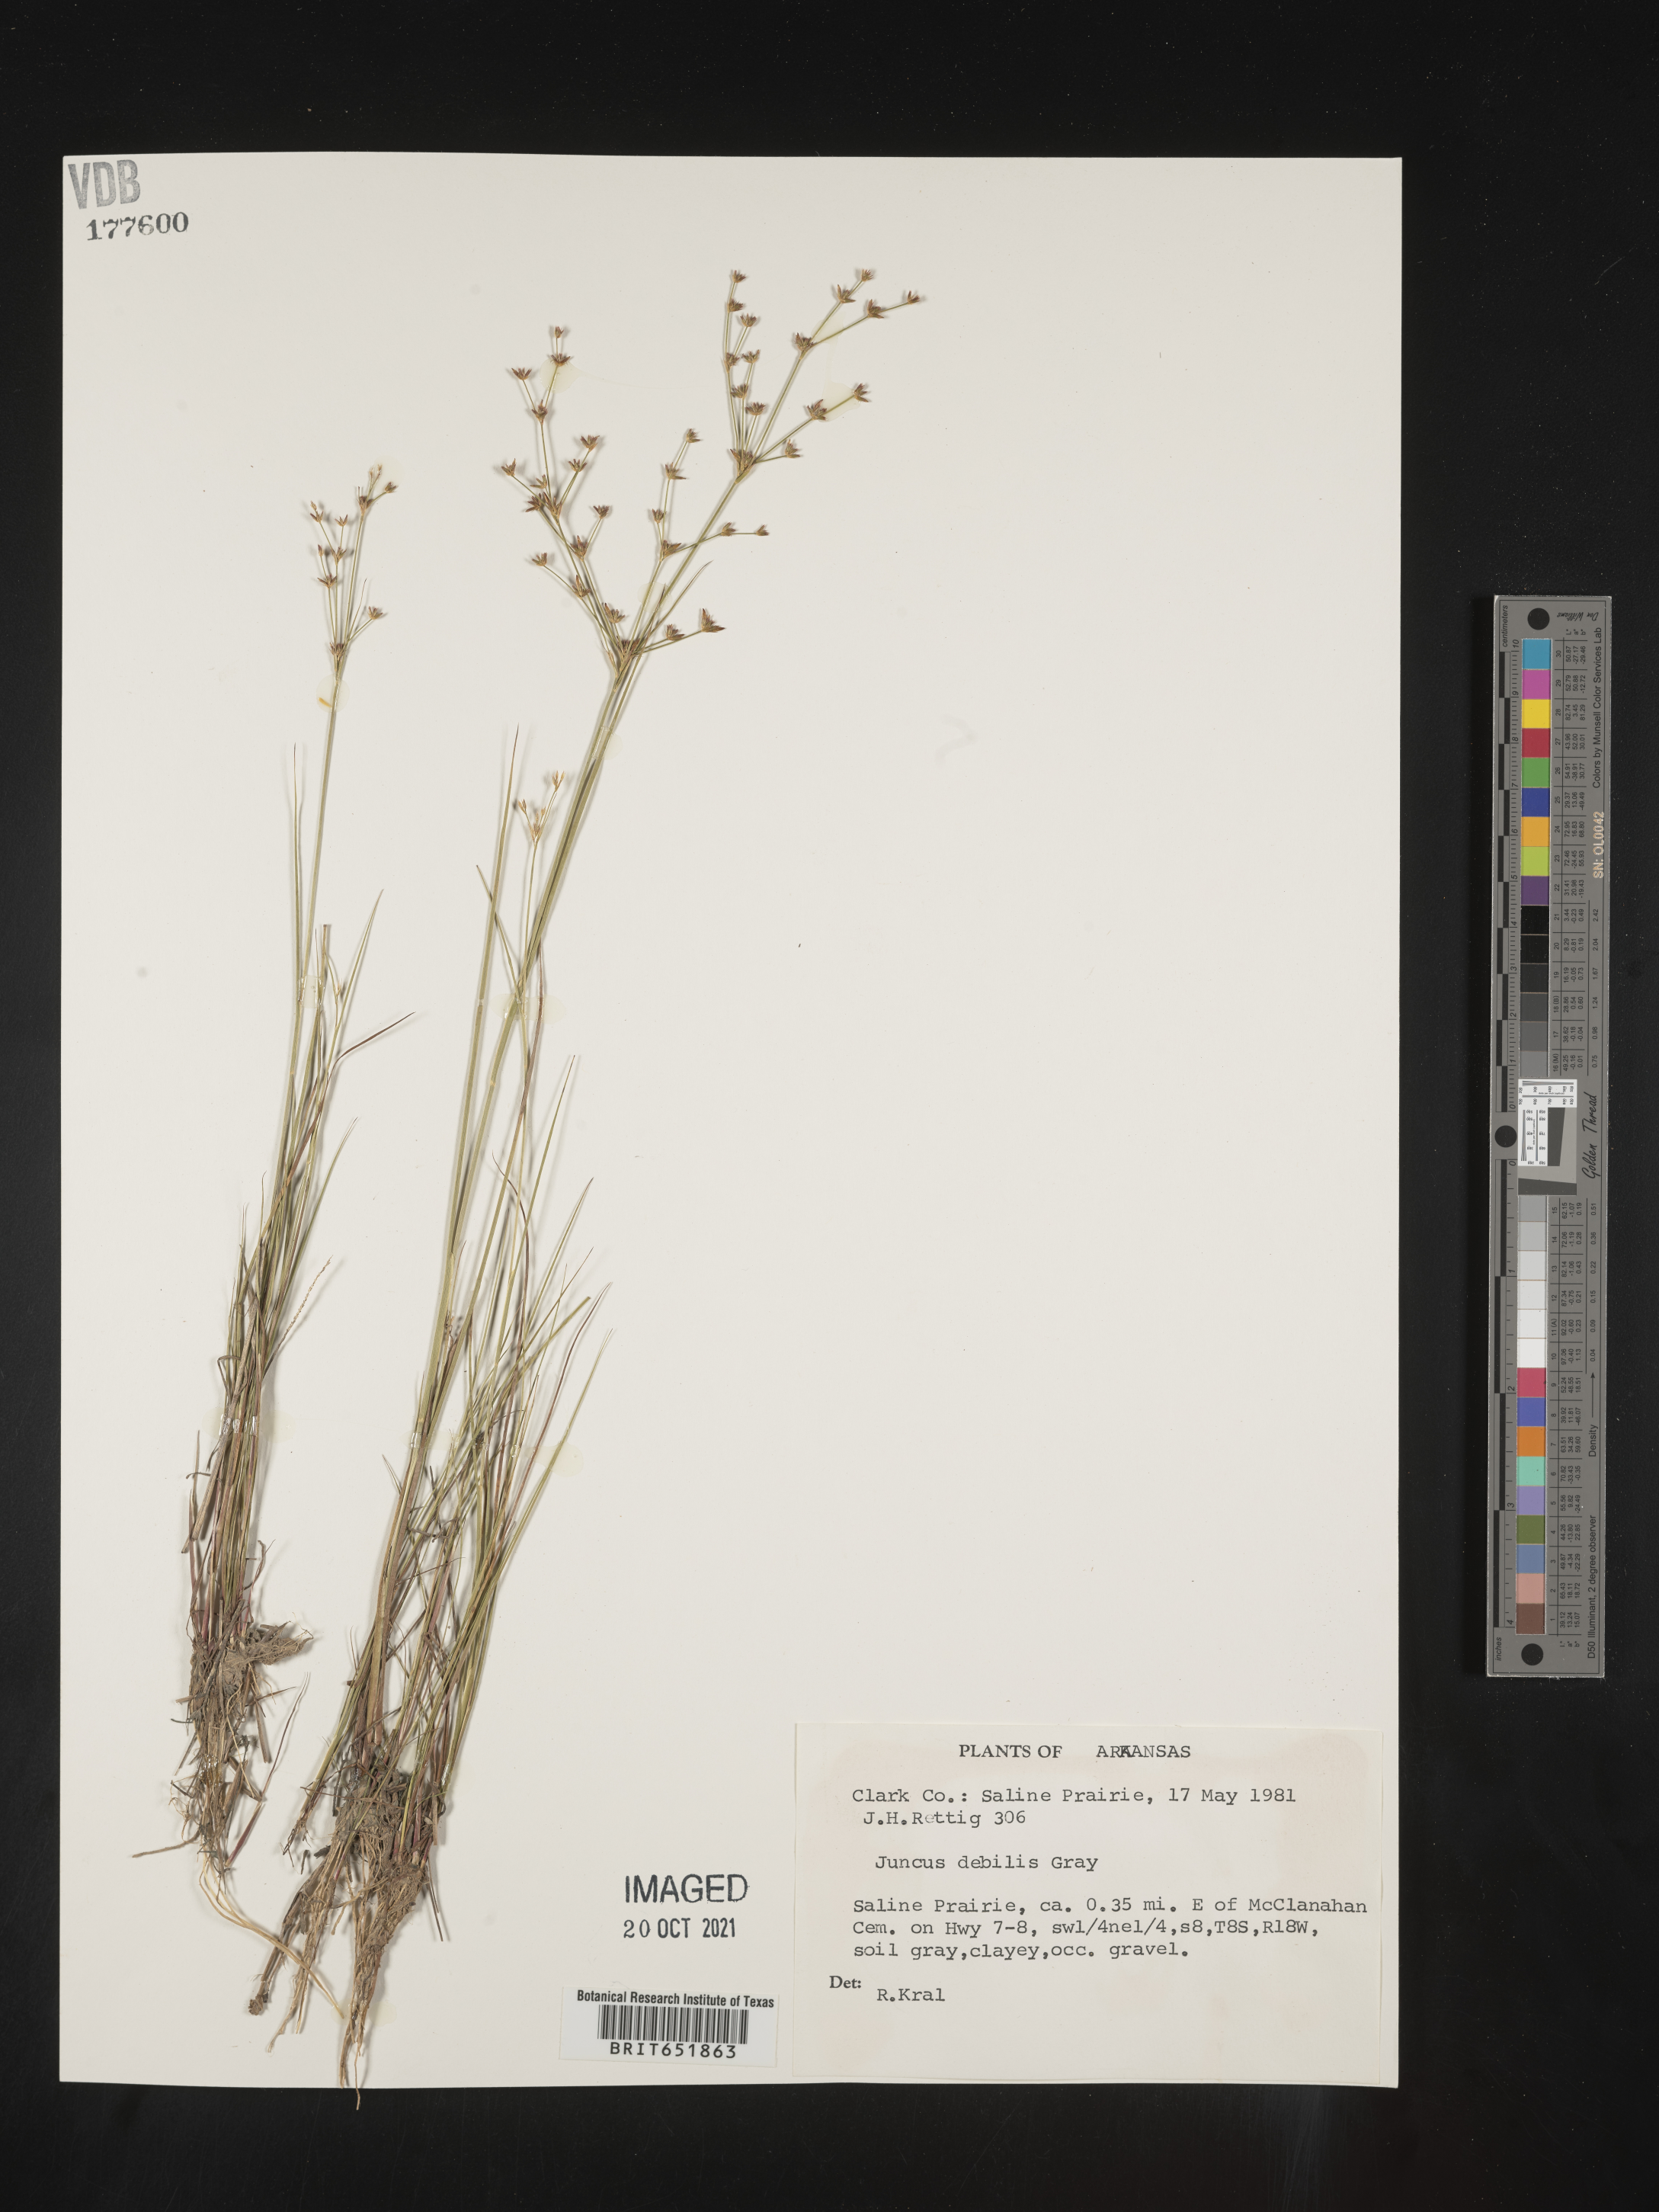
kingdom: Plantae
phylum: Tracheophyta
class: Liliopsida
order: Poales
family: Juncaceae
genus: Juncus
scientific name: Juncus debilis
